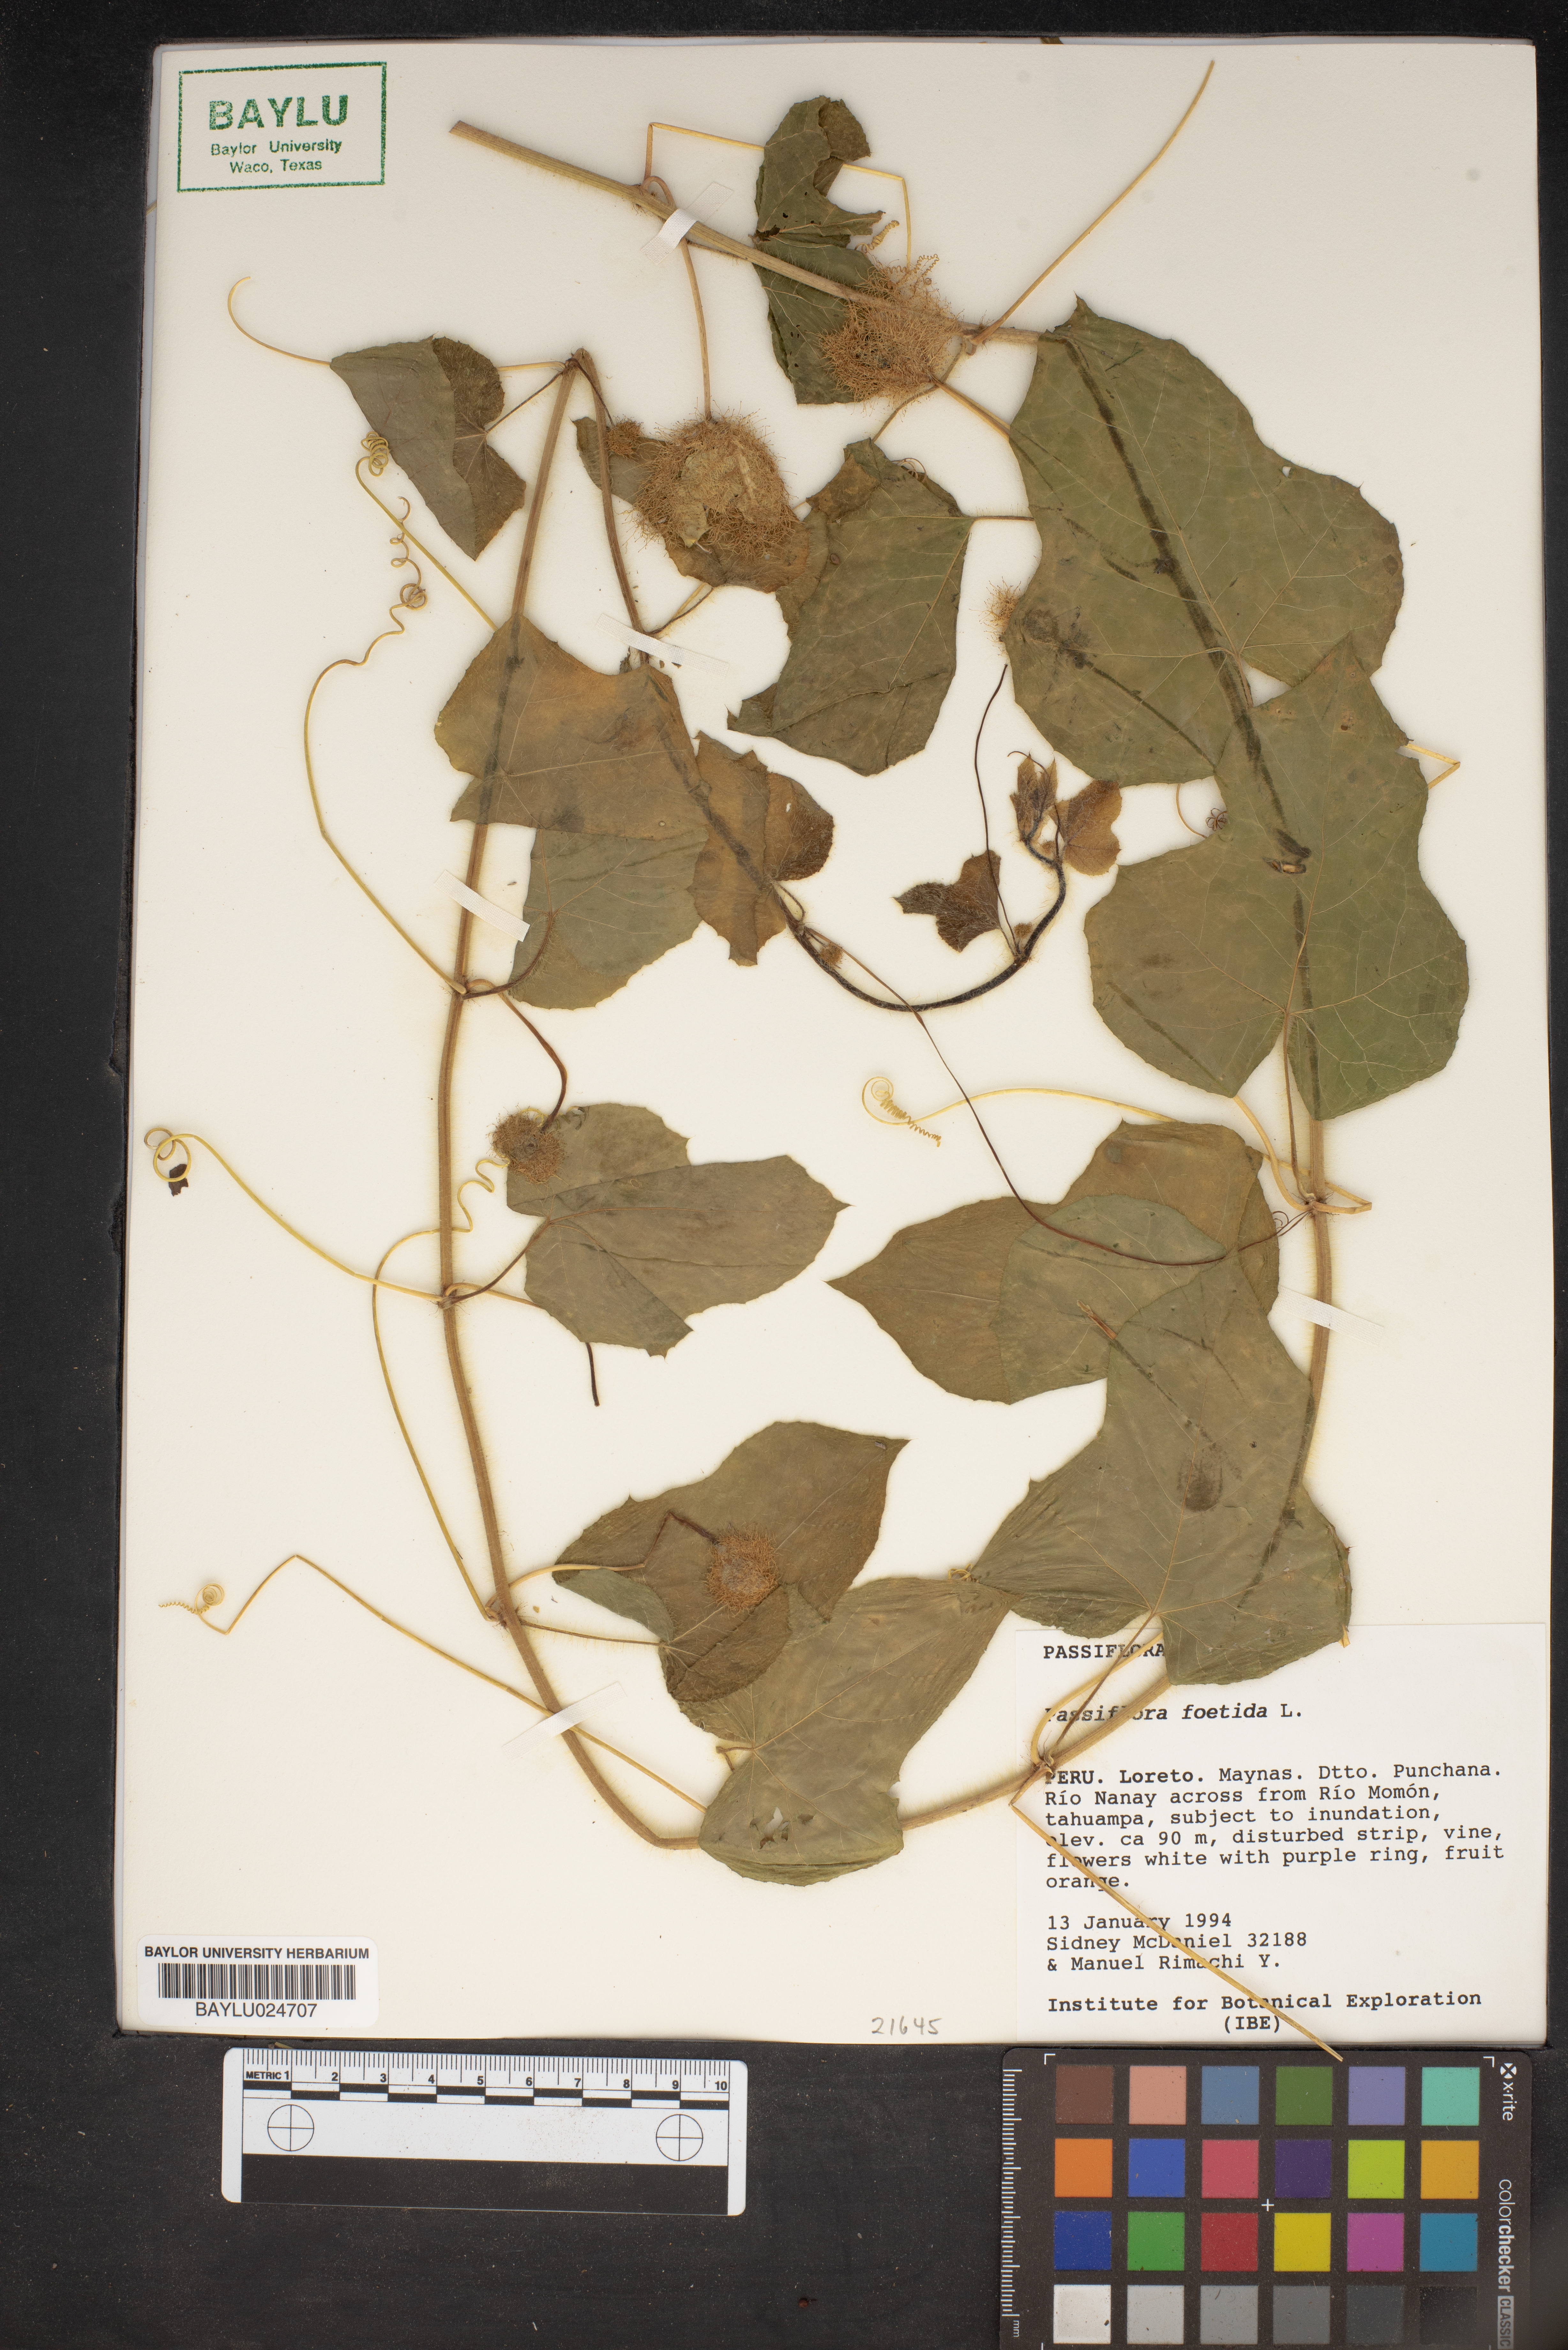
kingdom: Plantae
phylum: Tracheophyta
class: Magnoliopsida
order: Malpighiales
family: Passifloraceae
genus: Passiflora
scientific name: Passiflora foetida
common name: Fetid passionflower
